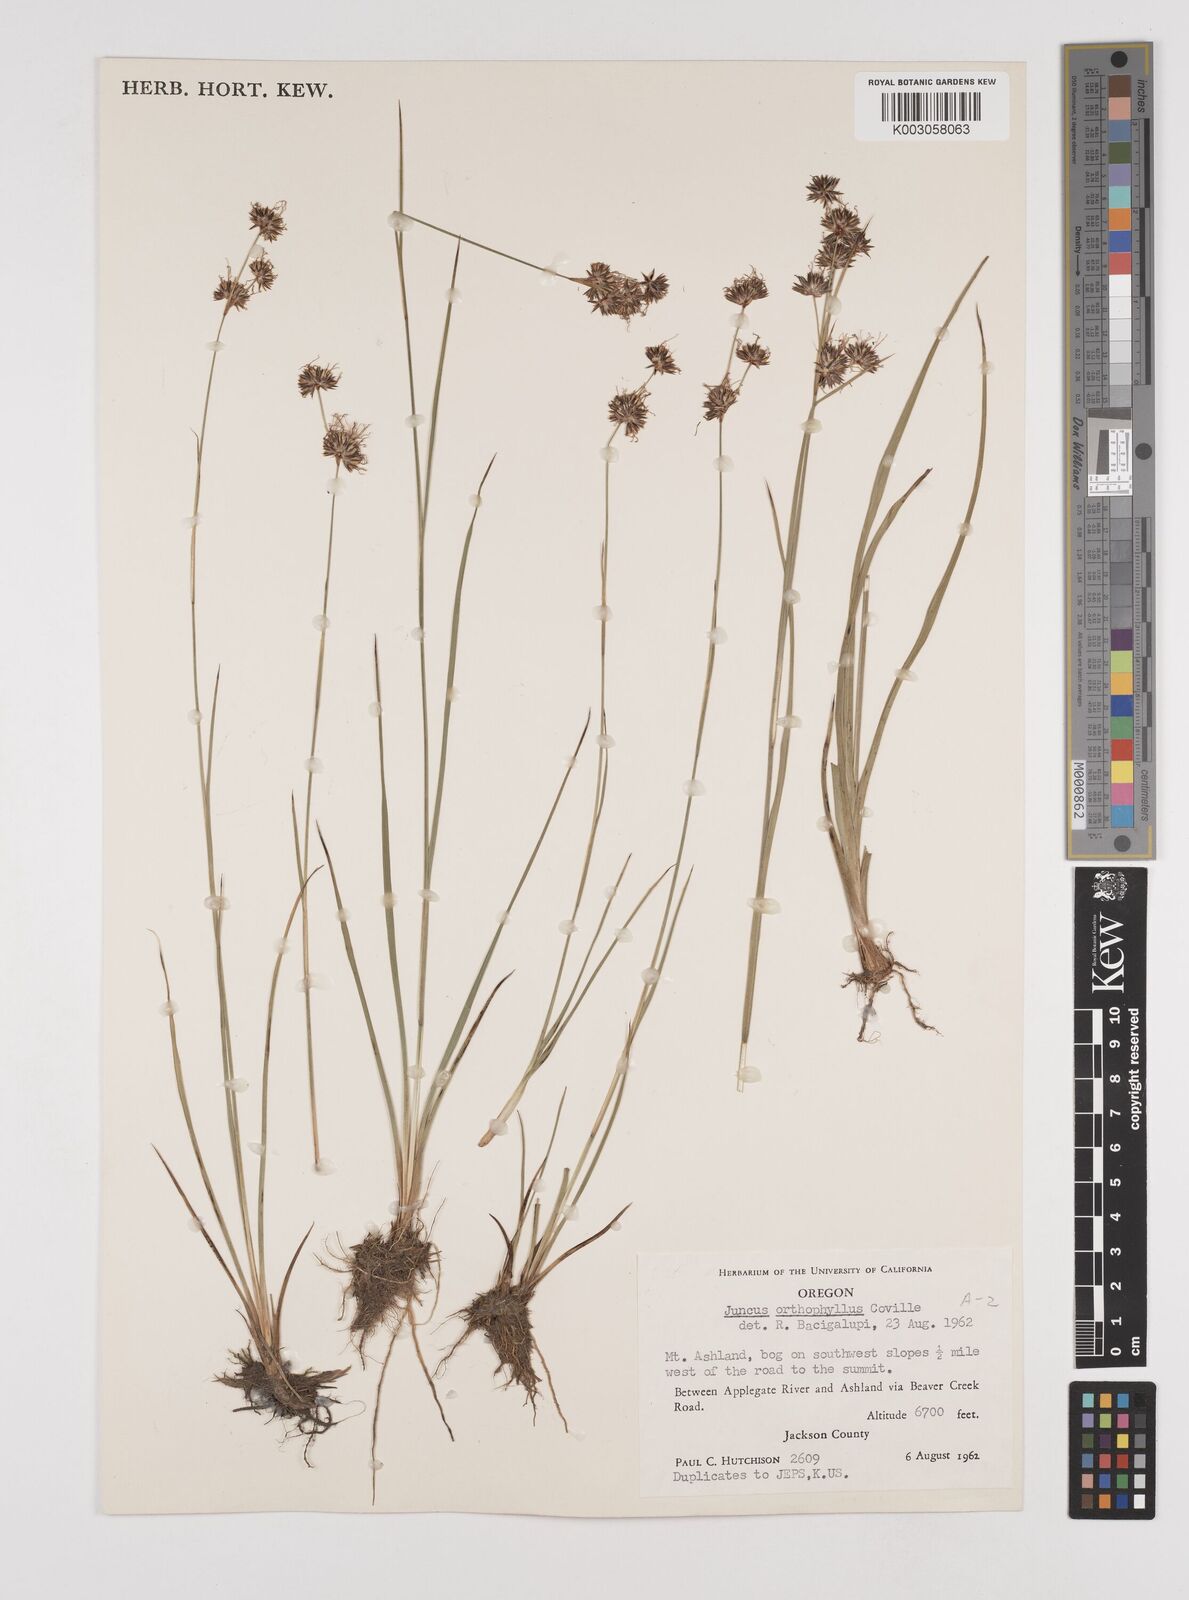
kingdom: Plantae
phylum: Tracheophyta
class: Liliopsida
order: Poales
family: Juncaceae
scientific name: Juncaceae
